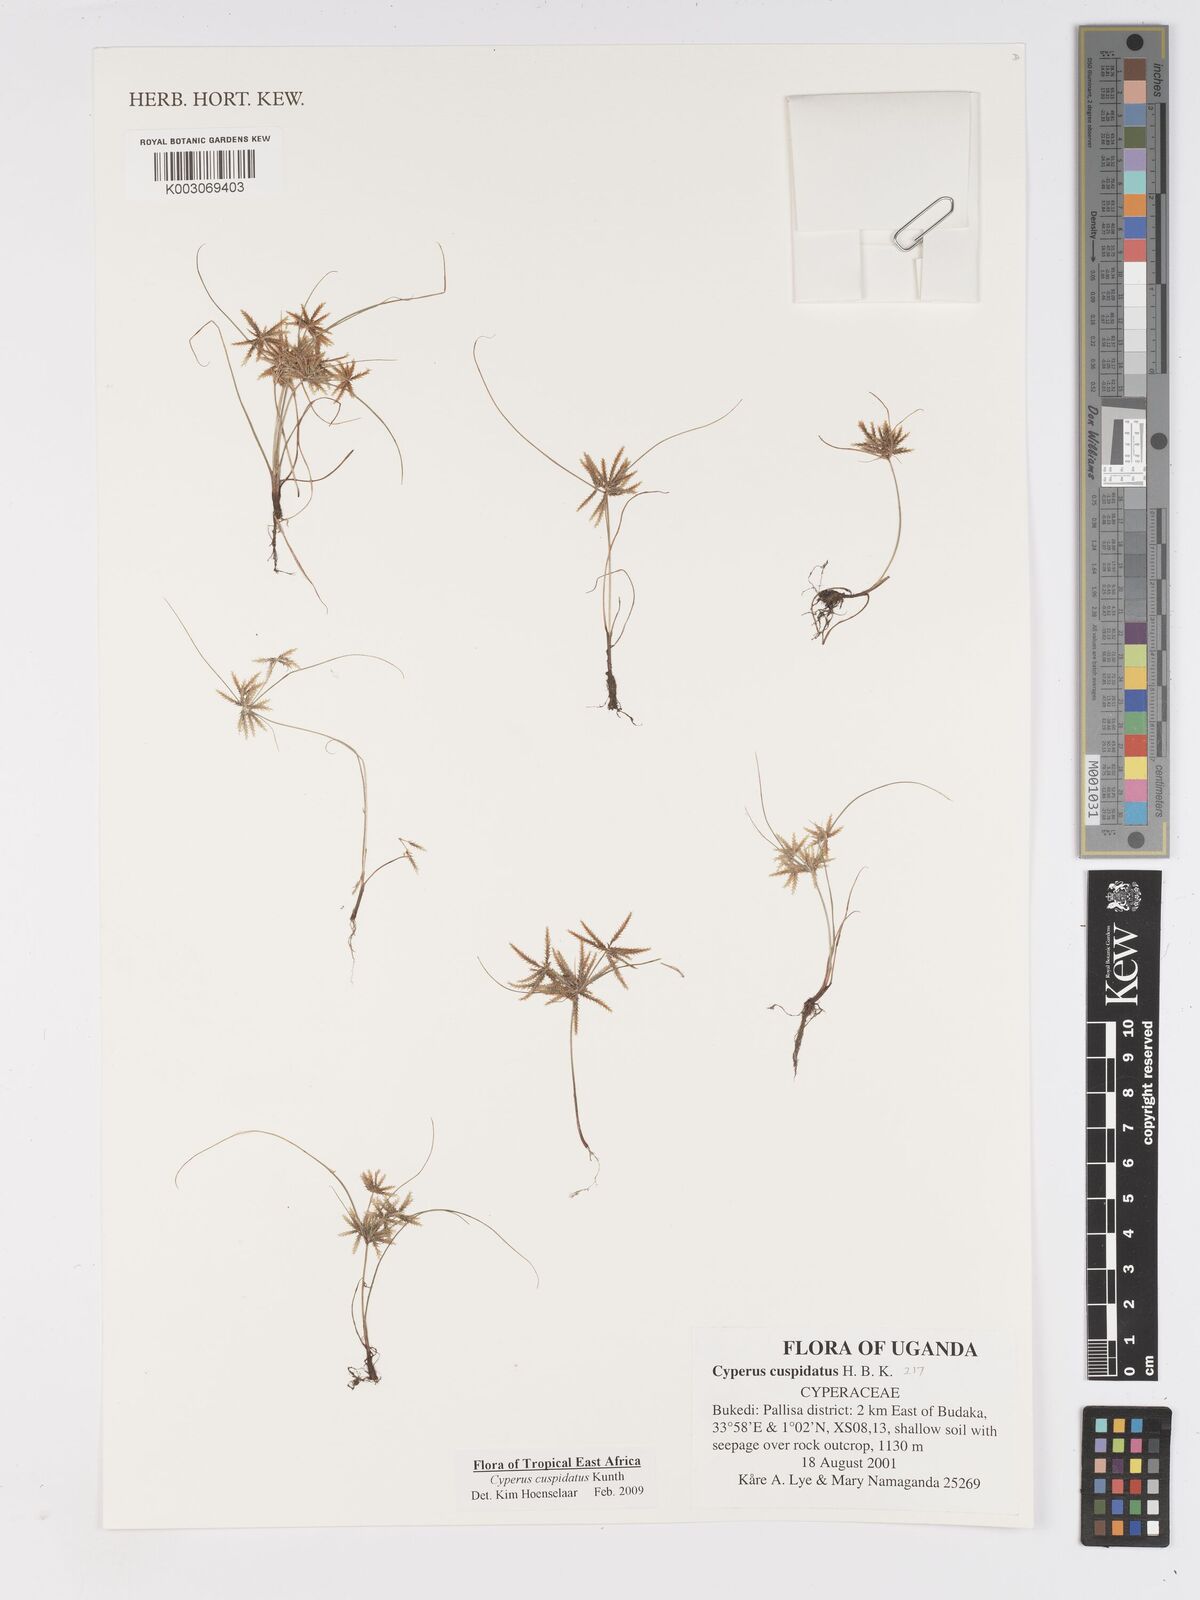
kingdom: Plantae
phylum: Tracheophyta
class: Liliopsida
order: Poales
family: Cyperaceae
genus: Cyperus
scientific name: Cyperus cuspidatus
